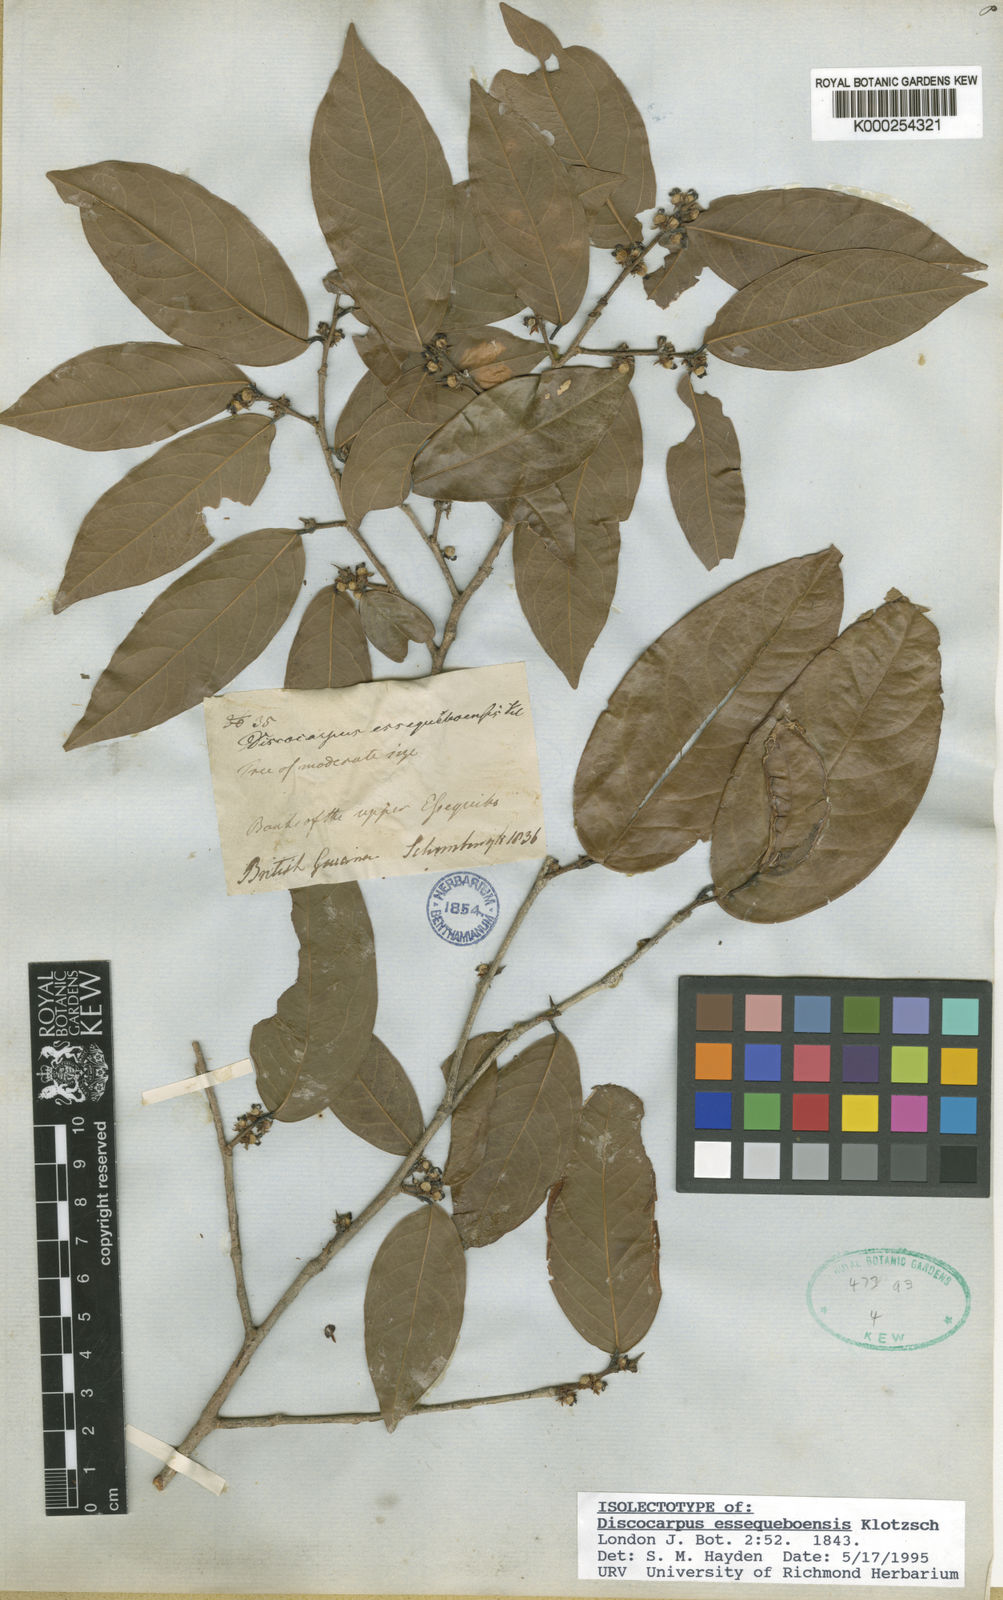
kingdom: Plantae
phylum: Tracheophyta
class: Magnoliopsida
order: Malpighiales
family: Phyllanthaceae
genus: Discocarpus
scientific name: Discocarpus essequeboensis
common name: Sqaure-wood
